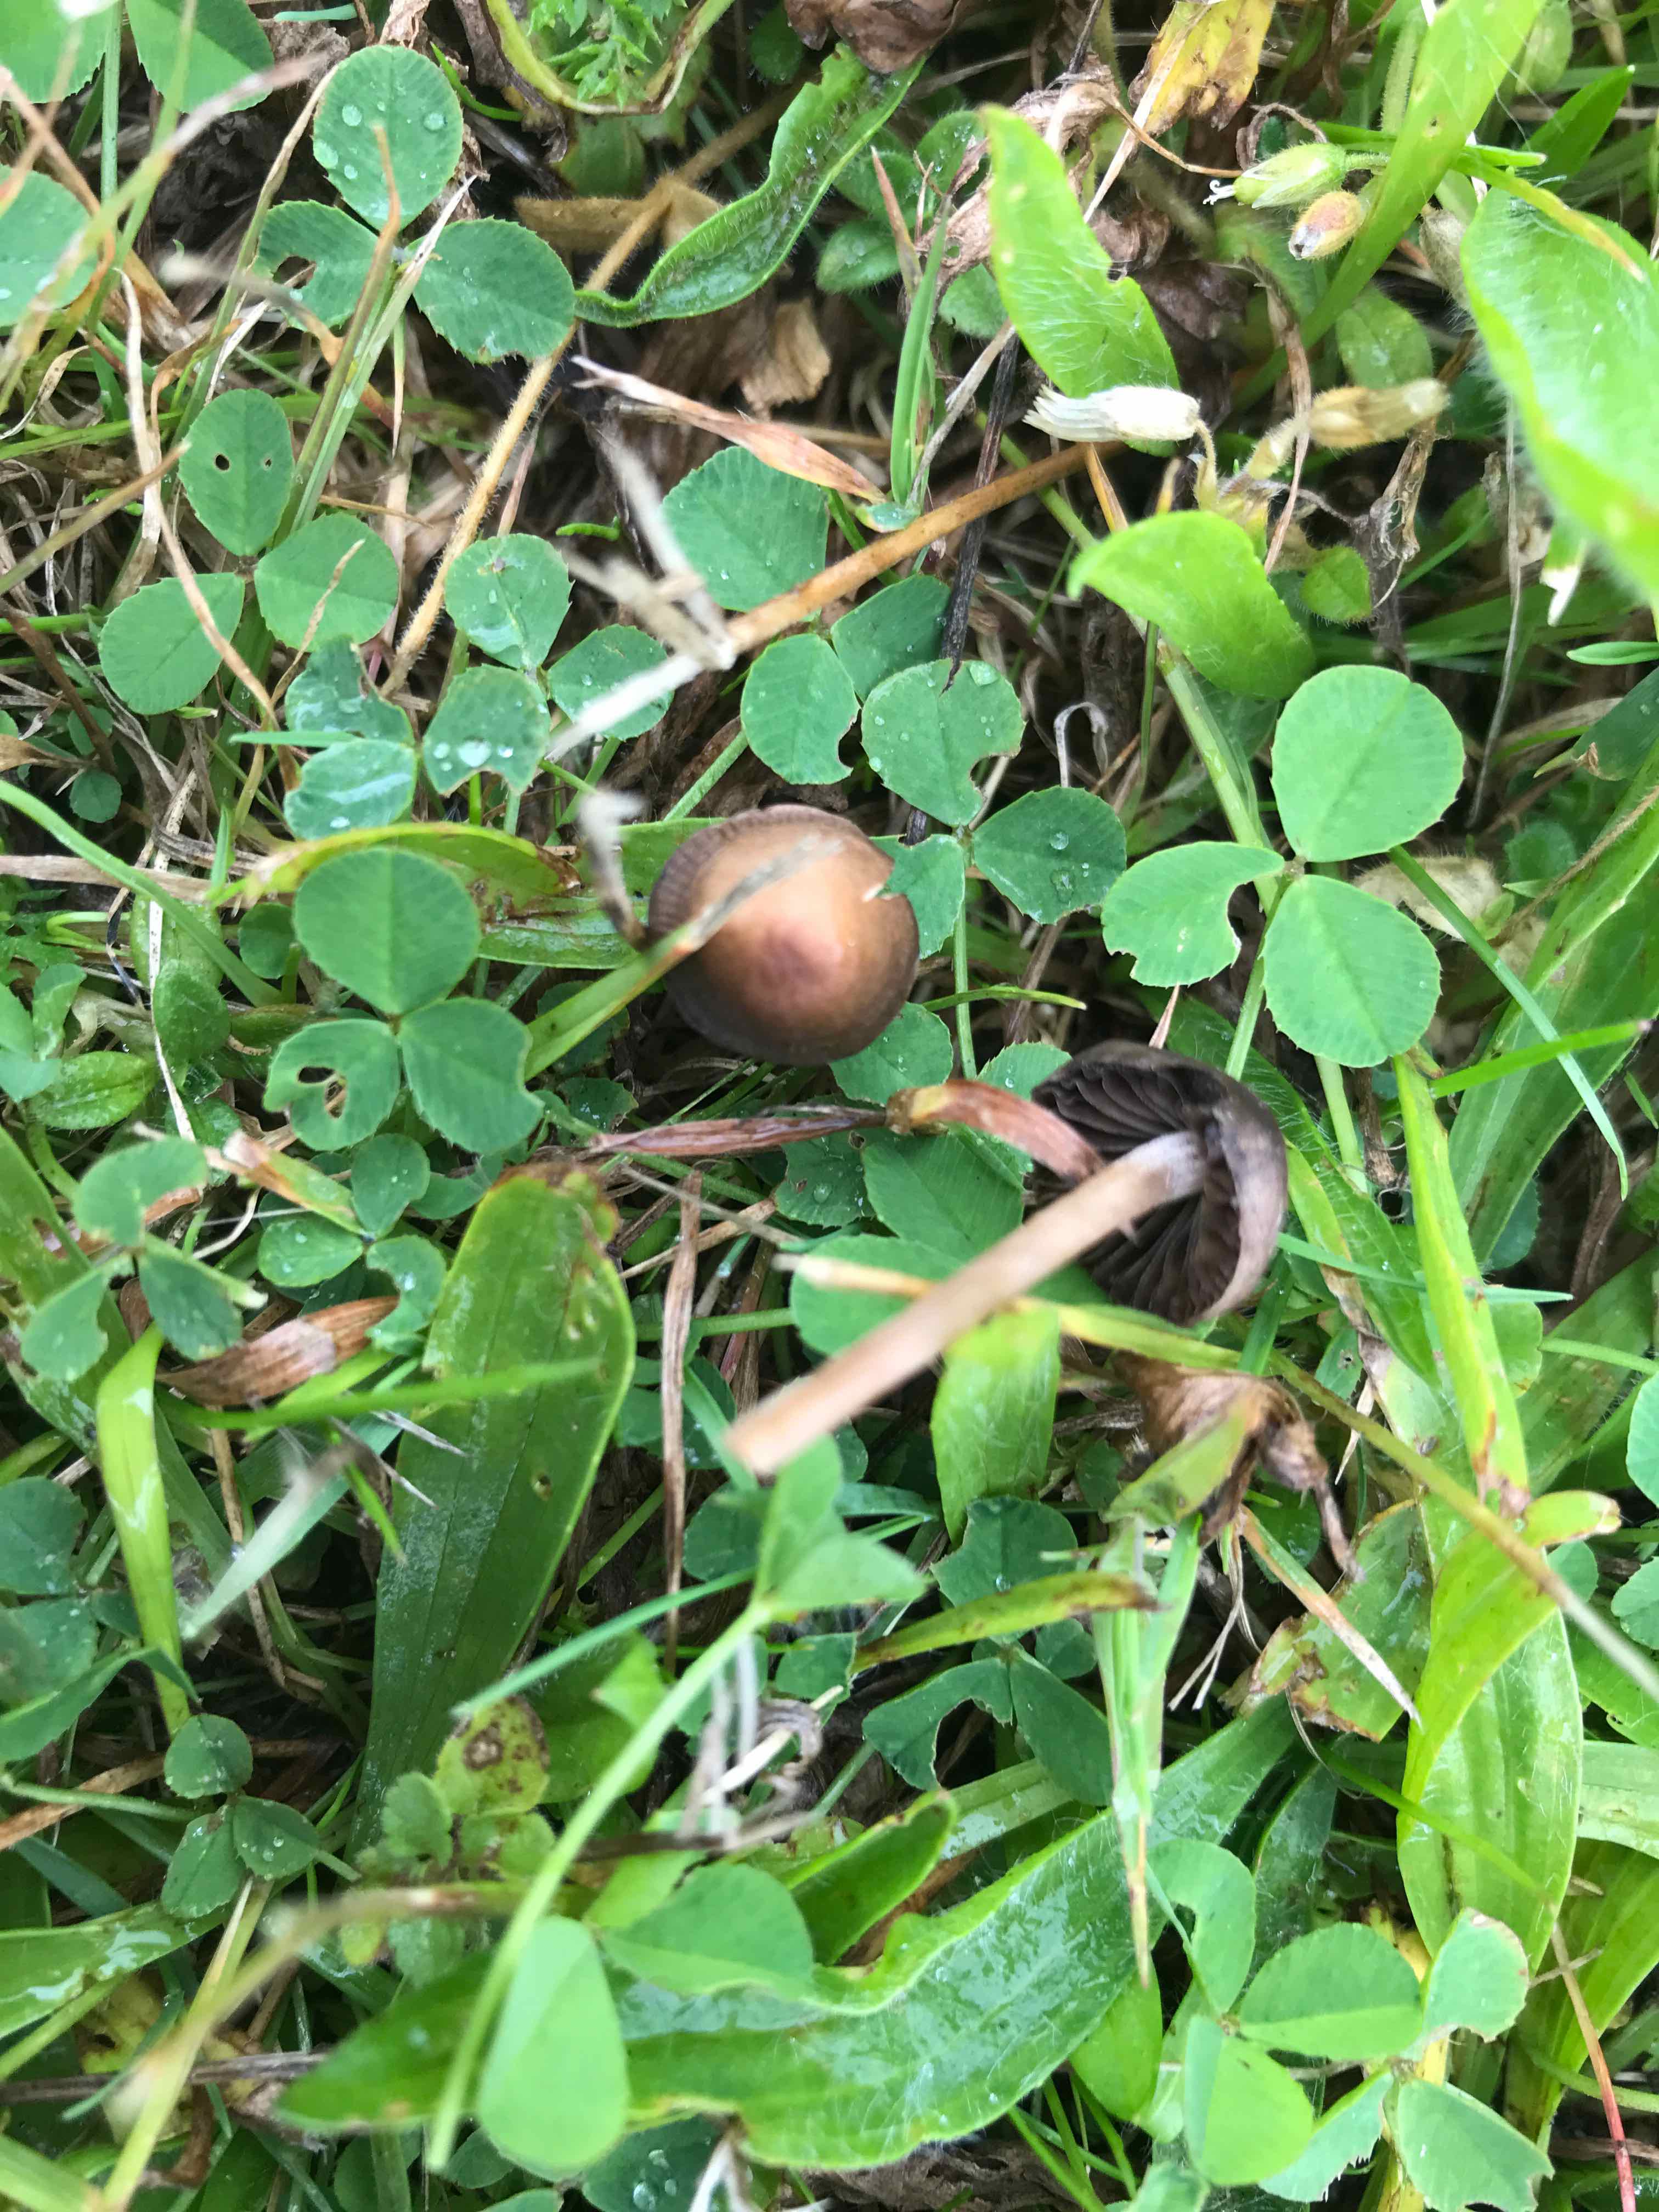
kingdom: Fungi
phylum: Basidiomycota
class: Agaricomycetes
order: Agaricales
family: Bolbitiaceae
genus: Panaeolina
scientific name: Panaeolina foenisecii
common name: høslætsvamp
